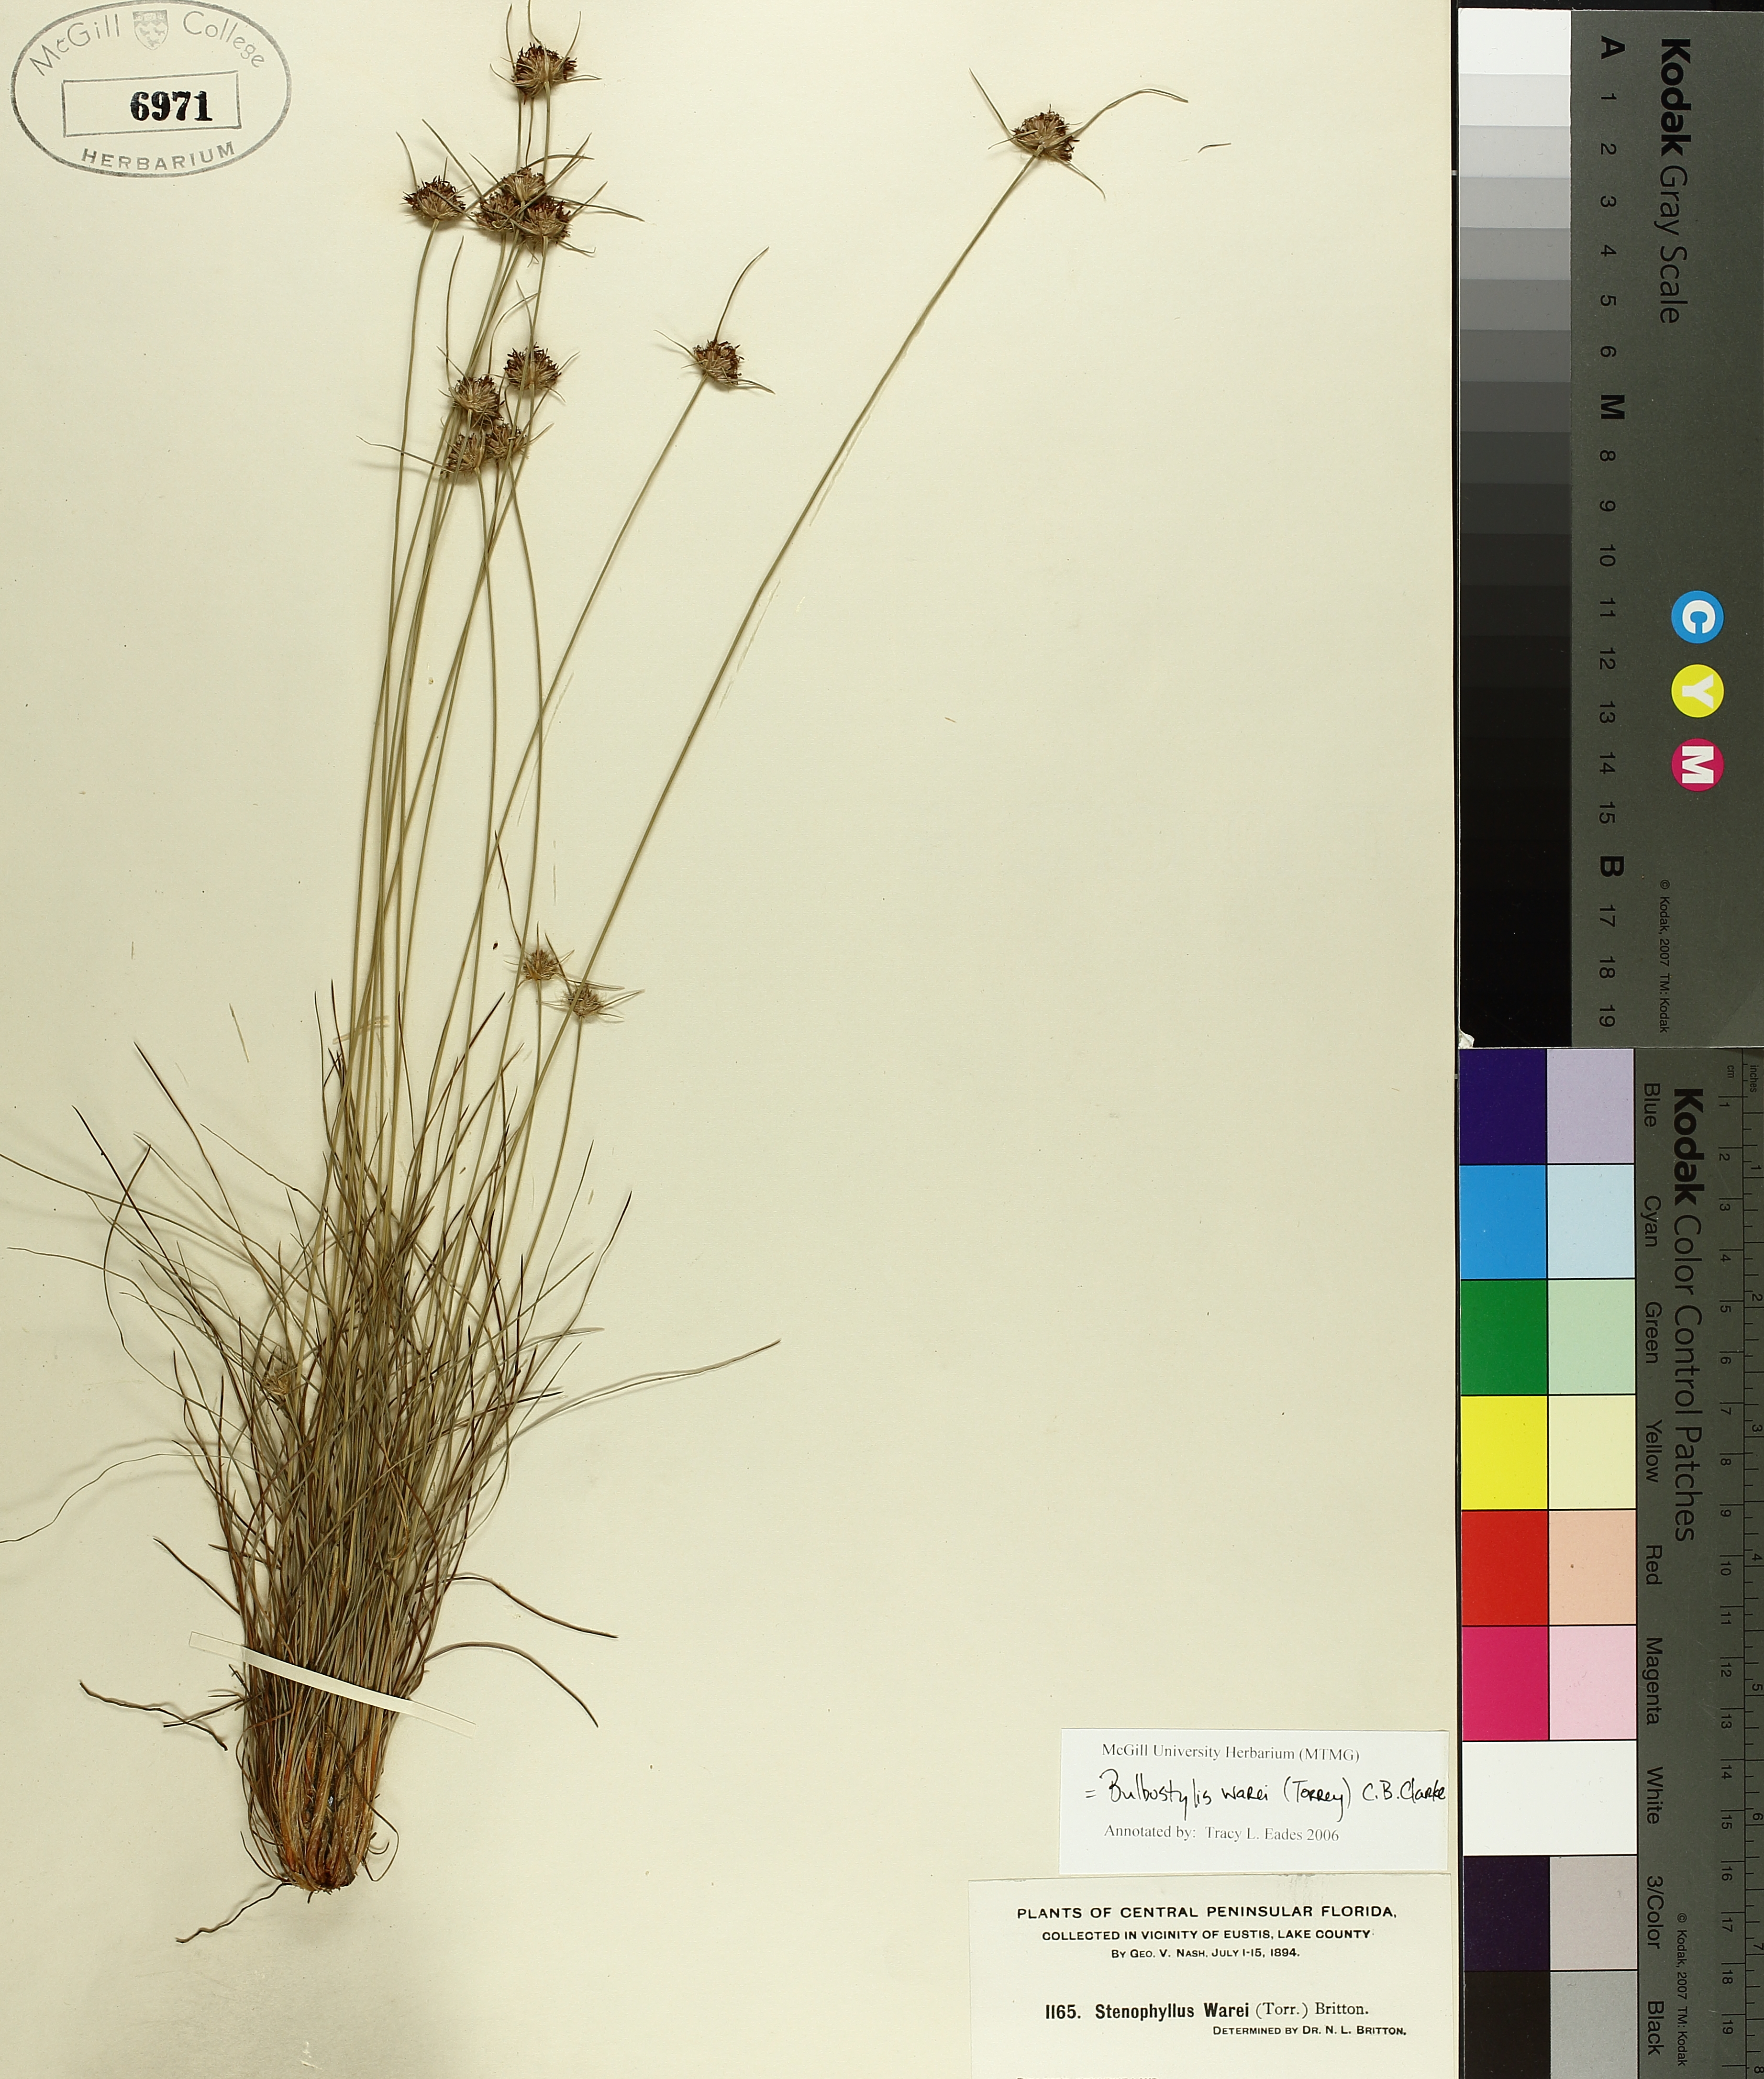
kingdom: Plantae
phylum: Tracheophyta
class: Liliopsida
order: Poales
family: Cyperaceae
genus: Bulbostylis
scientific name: Bulbostylis warei
